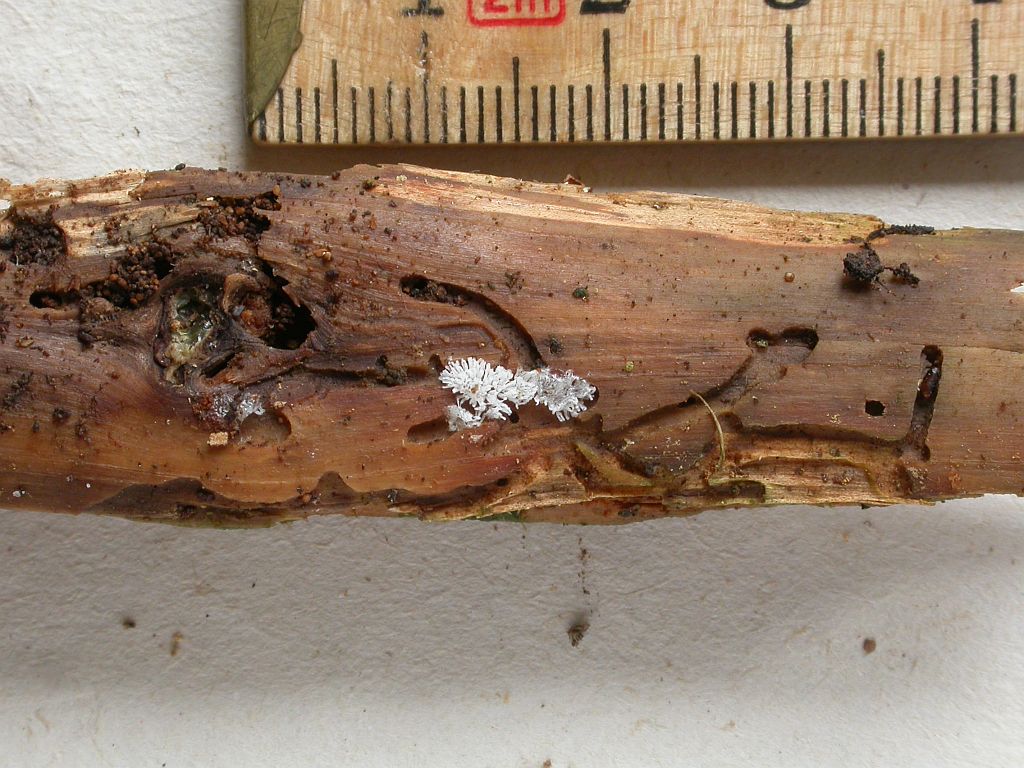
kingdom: Protozoa
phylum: Mycetozoa
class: Protosteliomycetes
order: Ceratiomyxales
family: Ceratiomyxaceae
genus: Ceratiomyxa
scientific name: Ceratiomyxa fruticulosa
